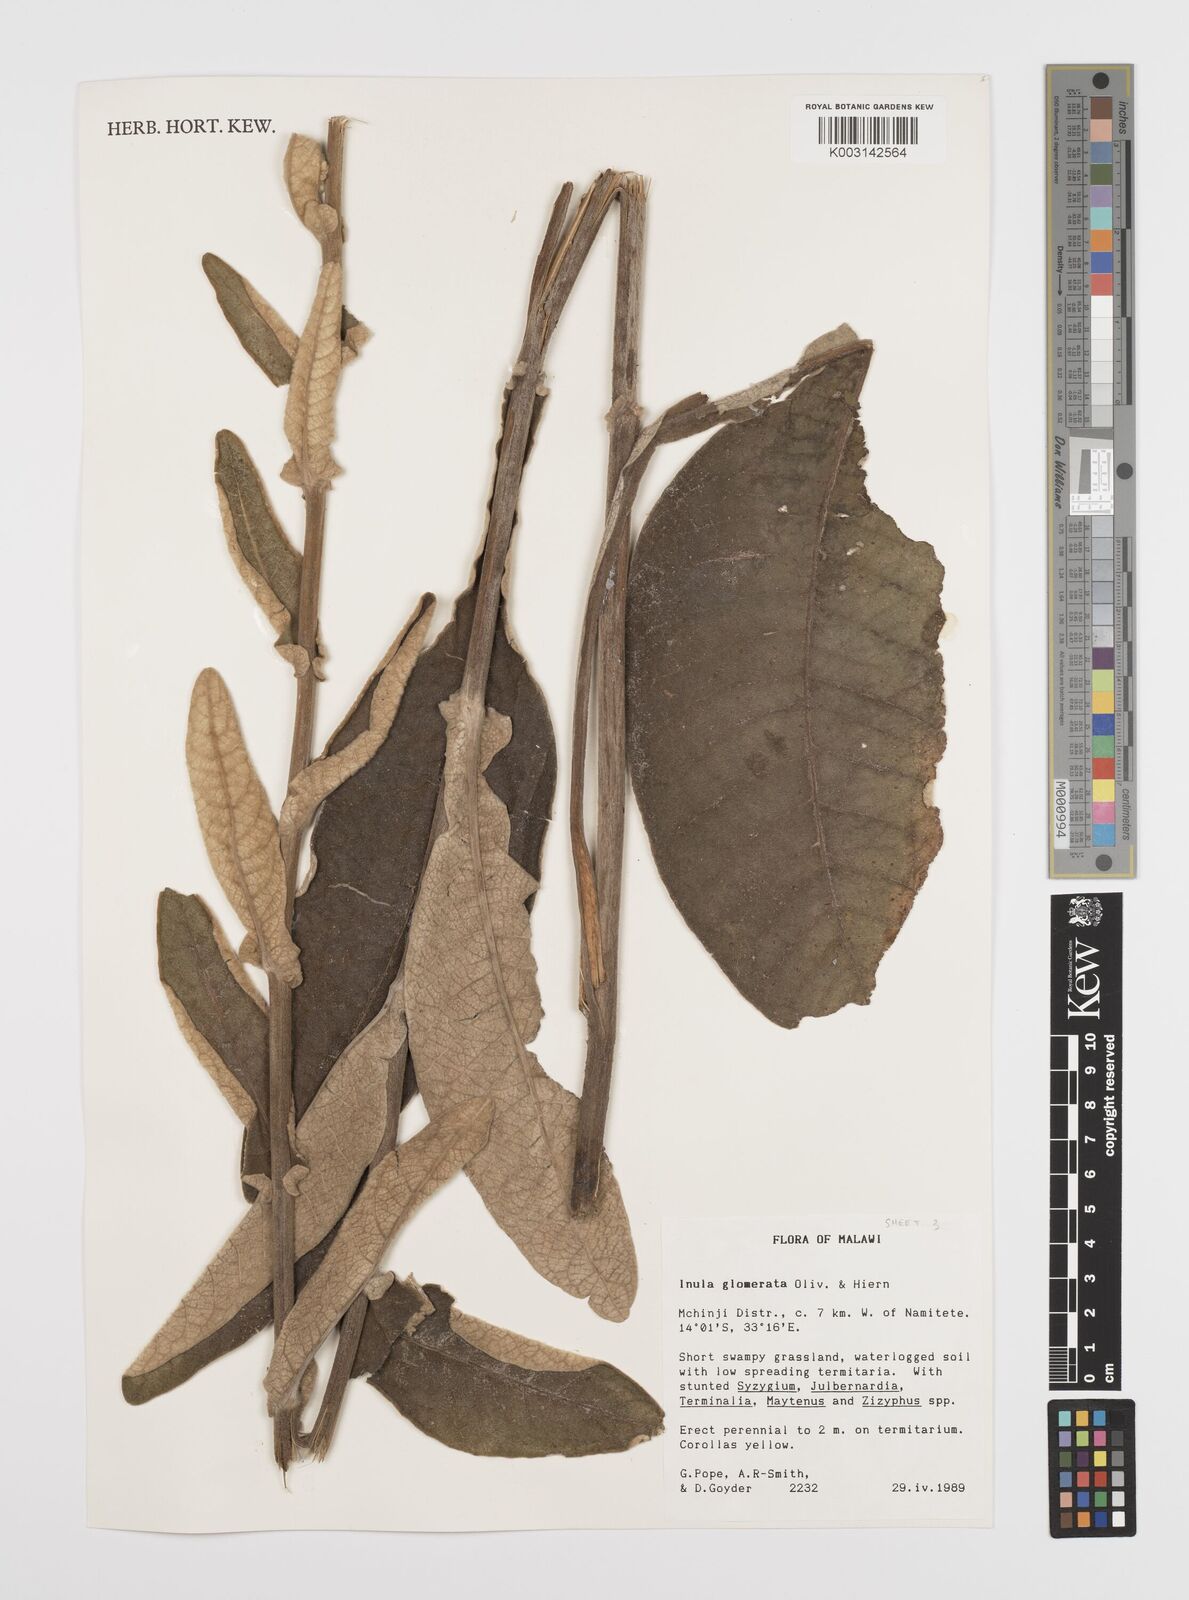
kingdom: Plantae
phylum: Tracheophyta
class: Magnoliopsida
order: Asterales
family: Asteraceae
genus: Inula
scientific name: Inula glomerata
